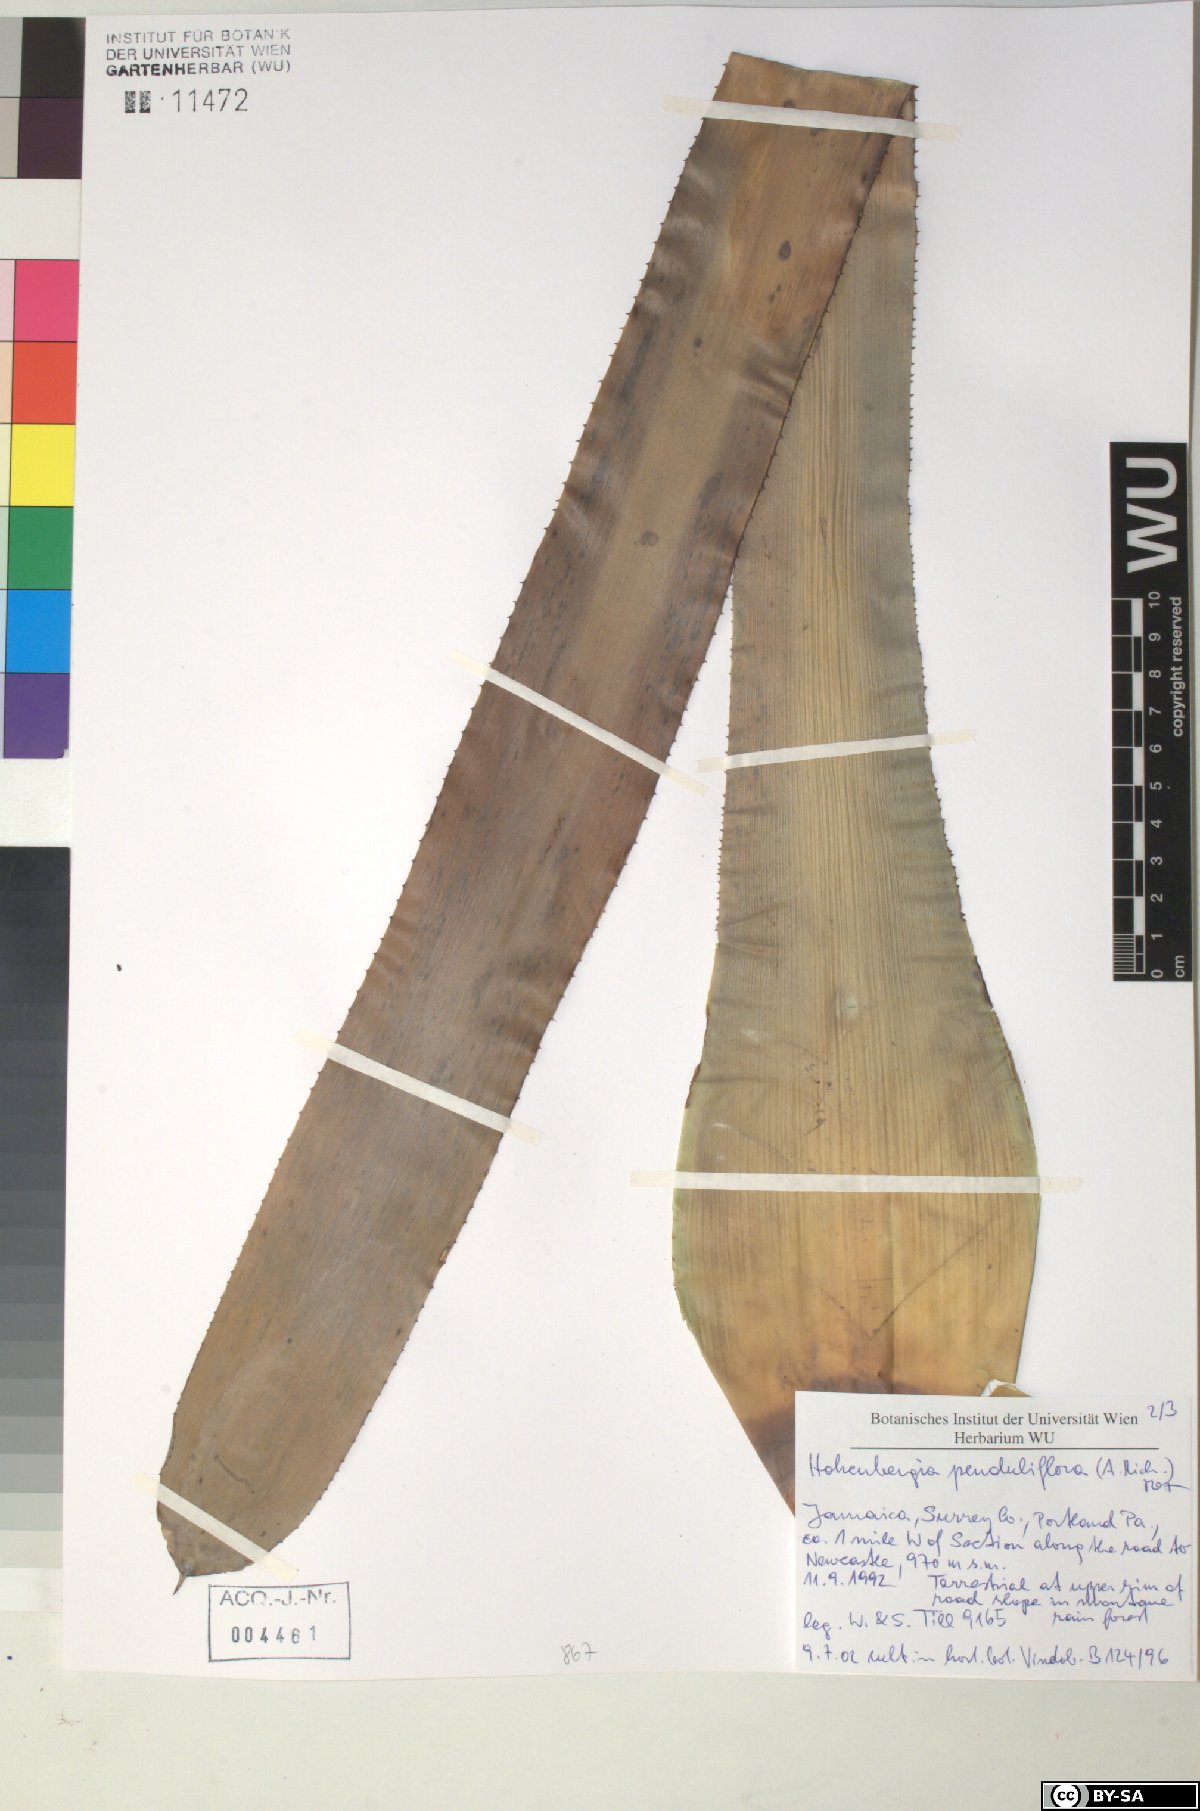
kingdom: Plantae
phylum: Tracheophyta
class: Liliopsida
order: Poales
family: Bromeliaceae
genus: Wittmackia
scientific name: Wittmackia penduliflora
